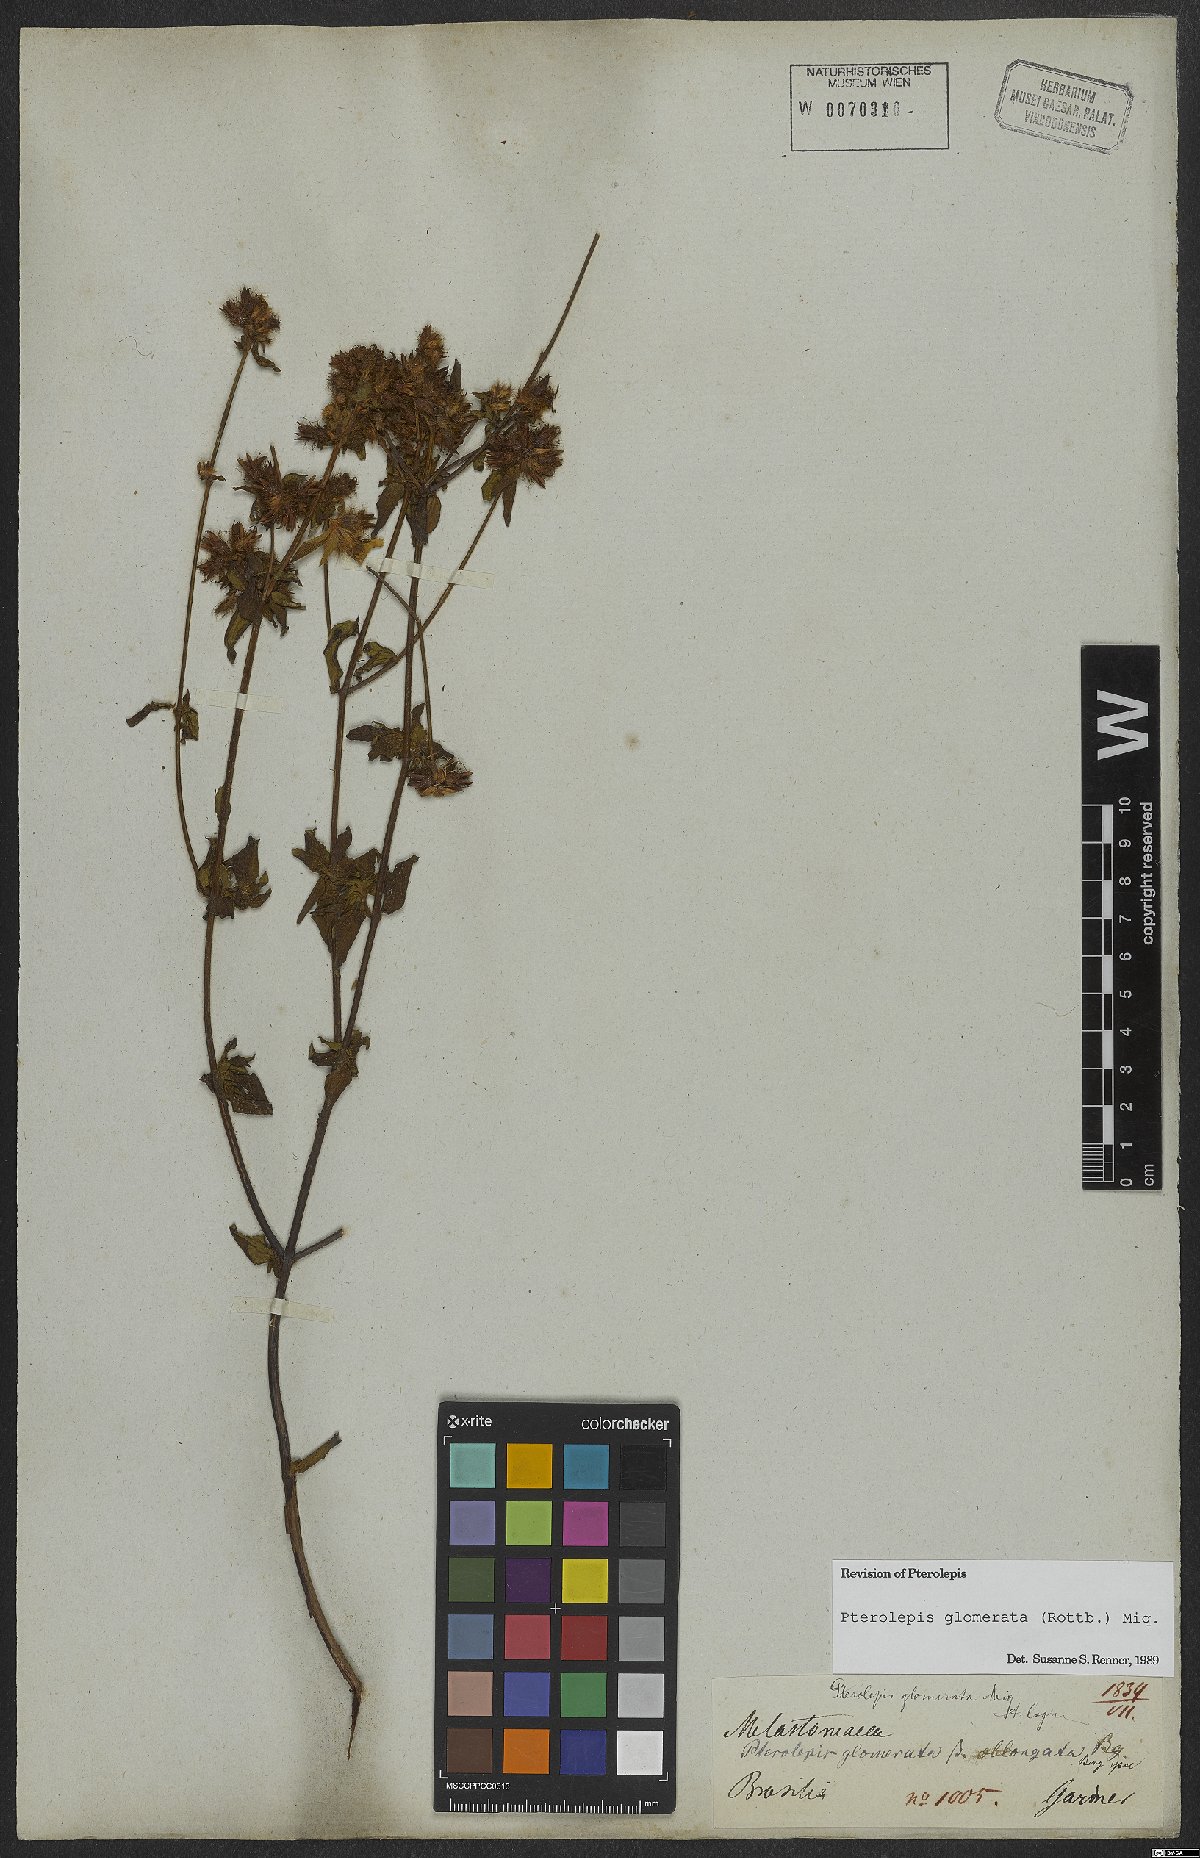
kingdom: Plantae
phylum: Tracheophyta
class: Magnoliopsida
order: Myrtales
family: Melastomataceae
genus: Pterolepis
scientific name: Pterolepis glomerata
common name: False meadowbeauty
